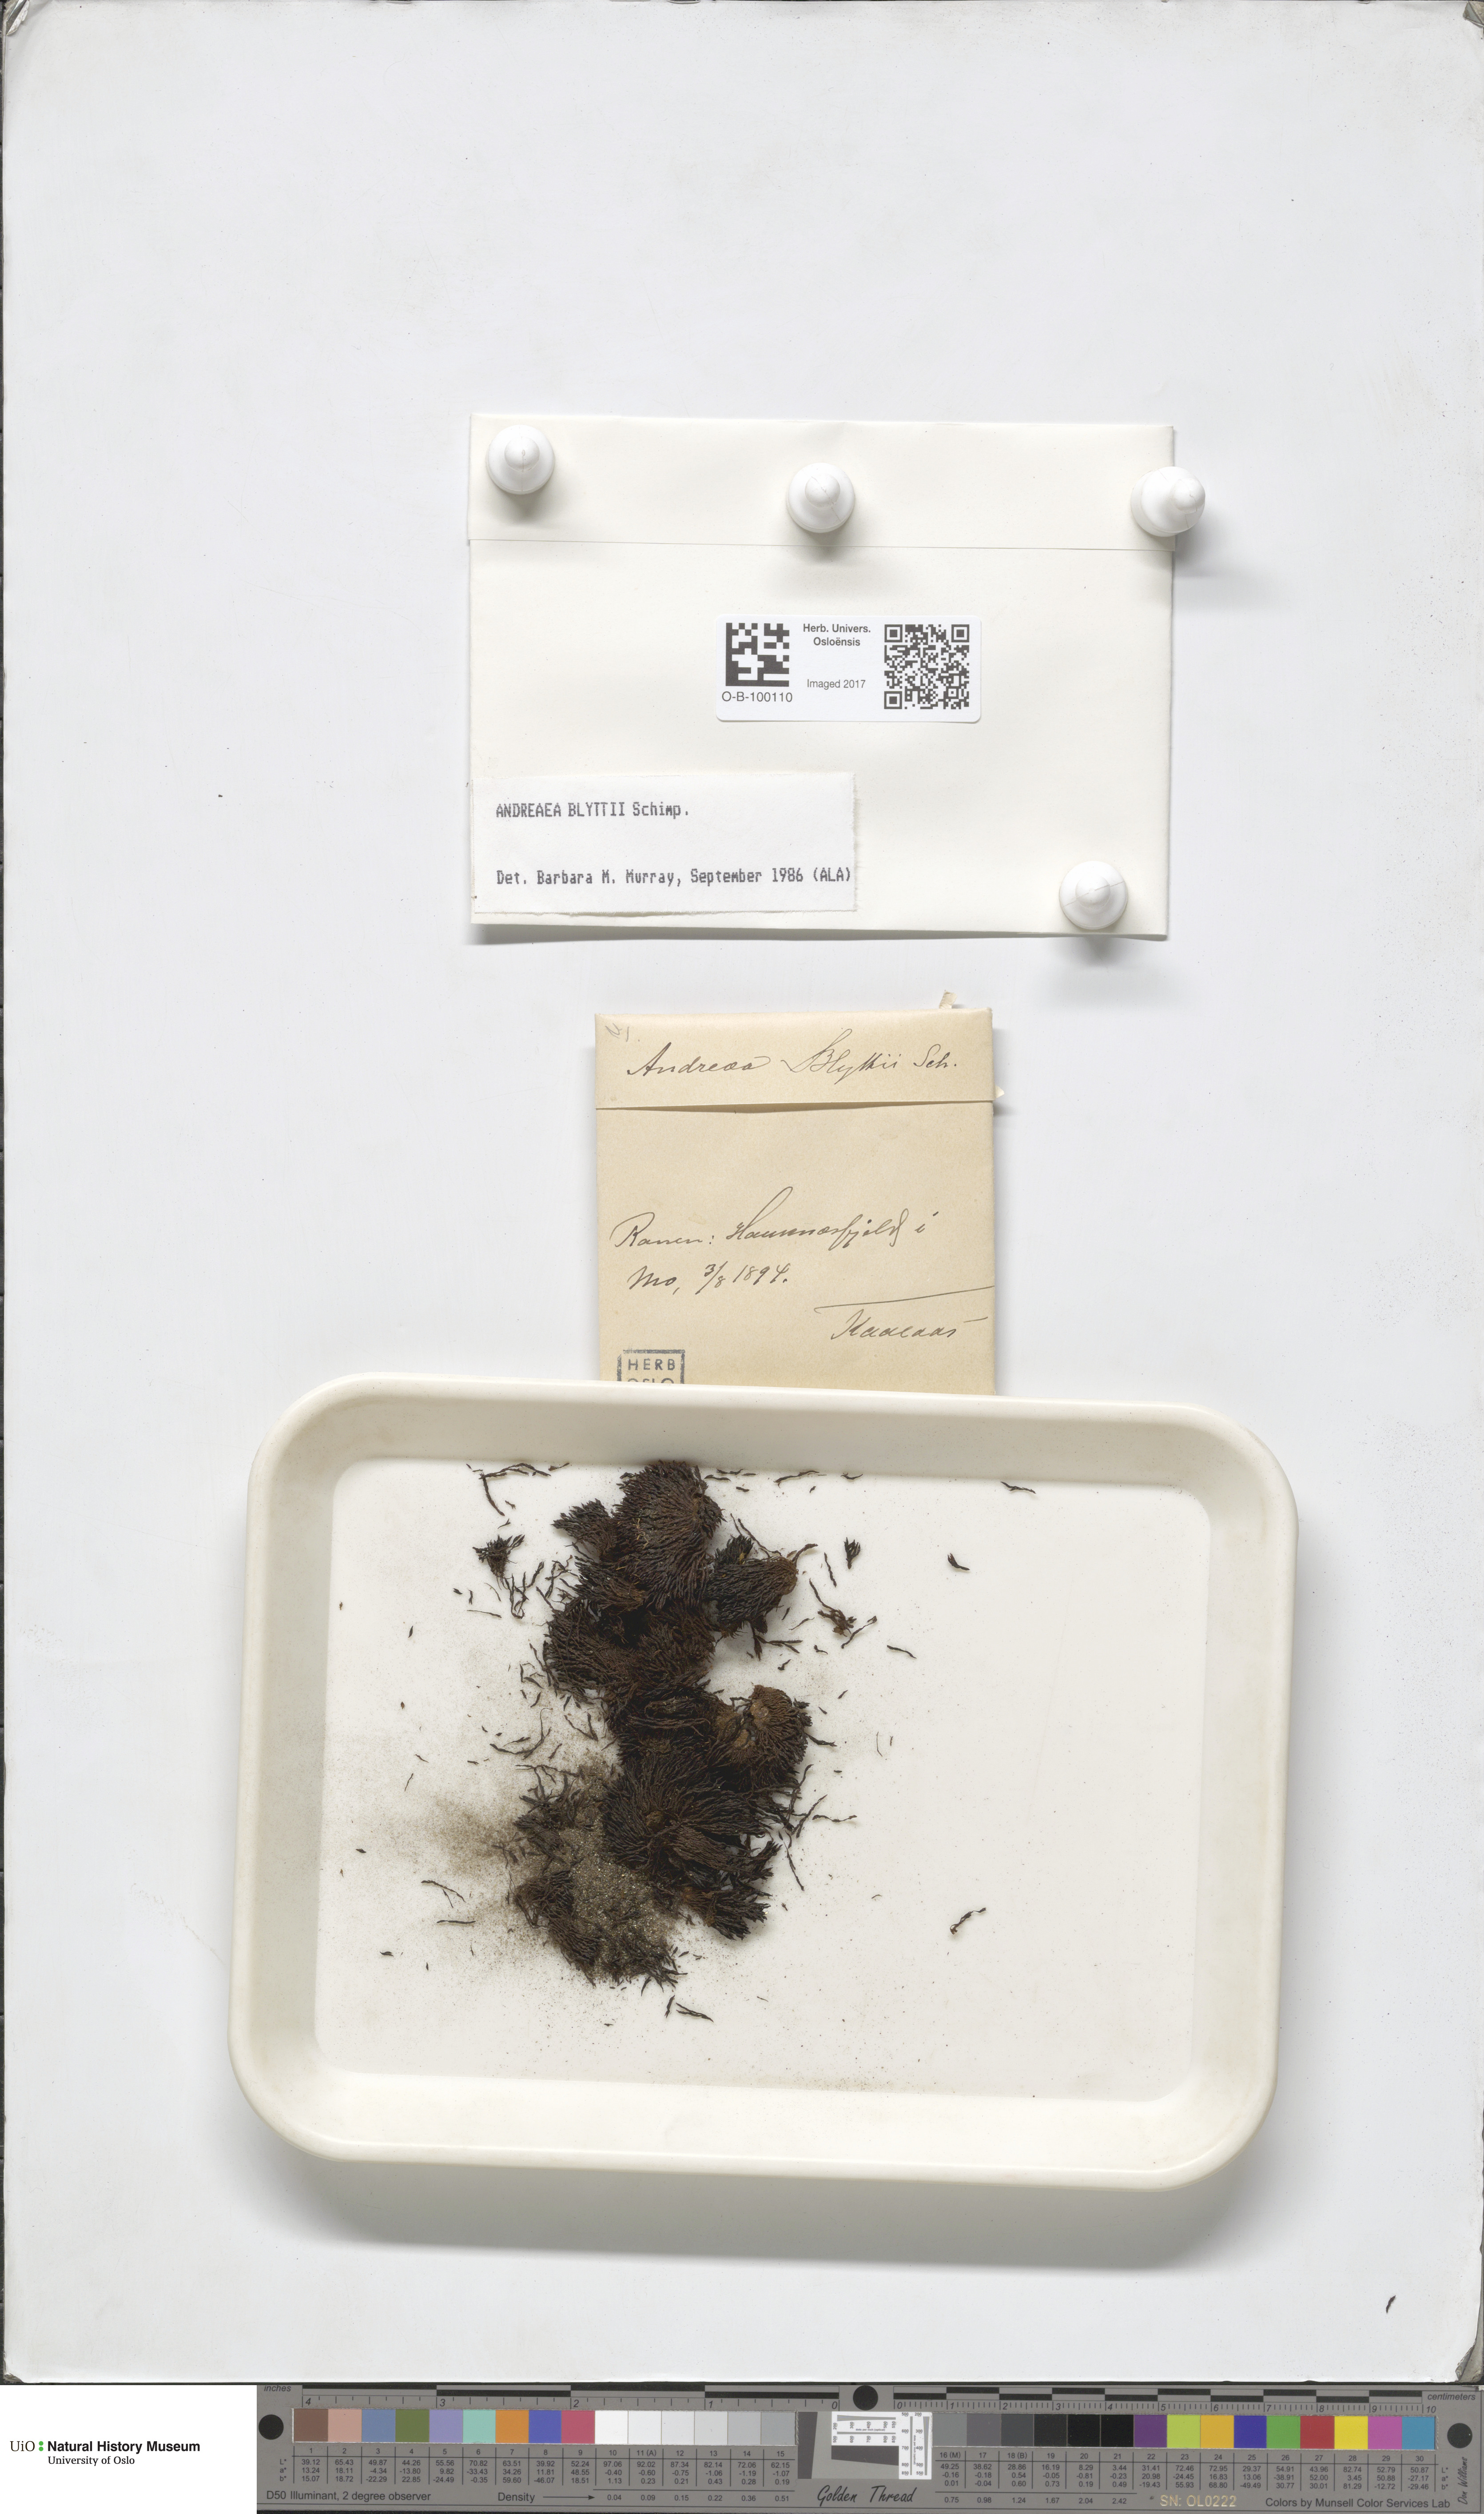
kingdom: Plantae
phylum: Bryophyta
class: Andreaeopsida
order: Andreaeales
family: Andreaeaceae
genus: Andreaea
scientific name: Andreaea blyttii
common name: Blytt's rock moss
